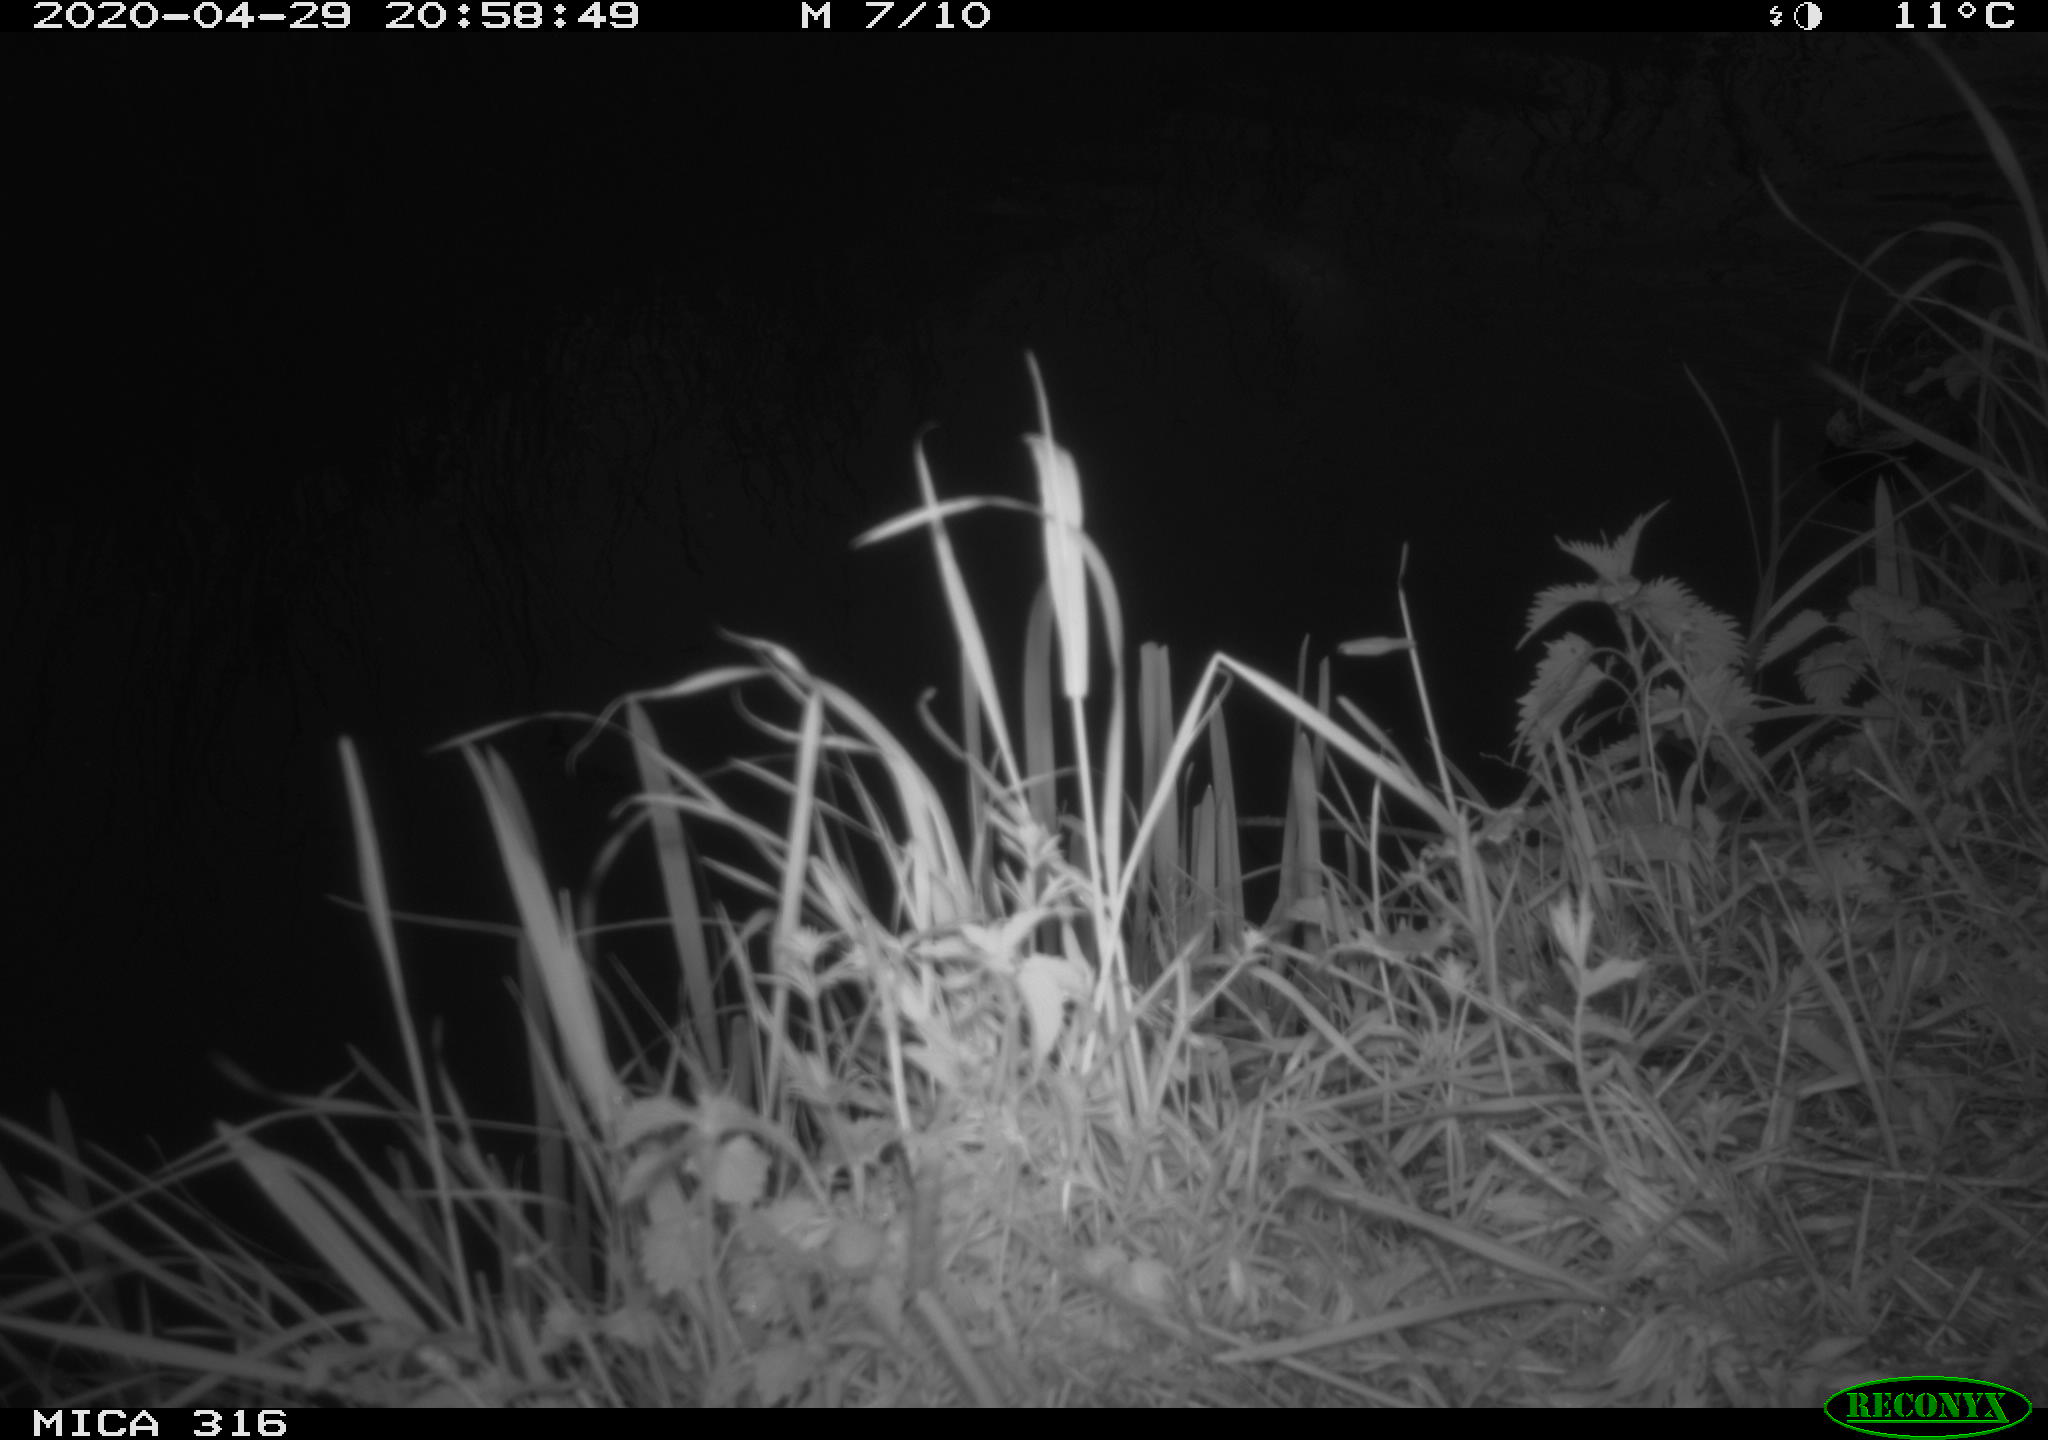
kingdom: Animalia
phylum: Chordata
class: Aves
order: Anseriformes
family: Anatidae
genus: Anas
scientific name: Anas platyrhynchos
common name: Mallard
